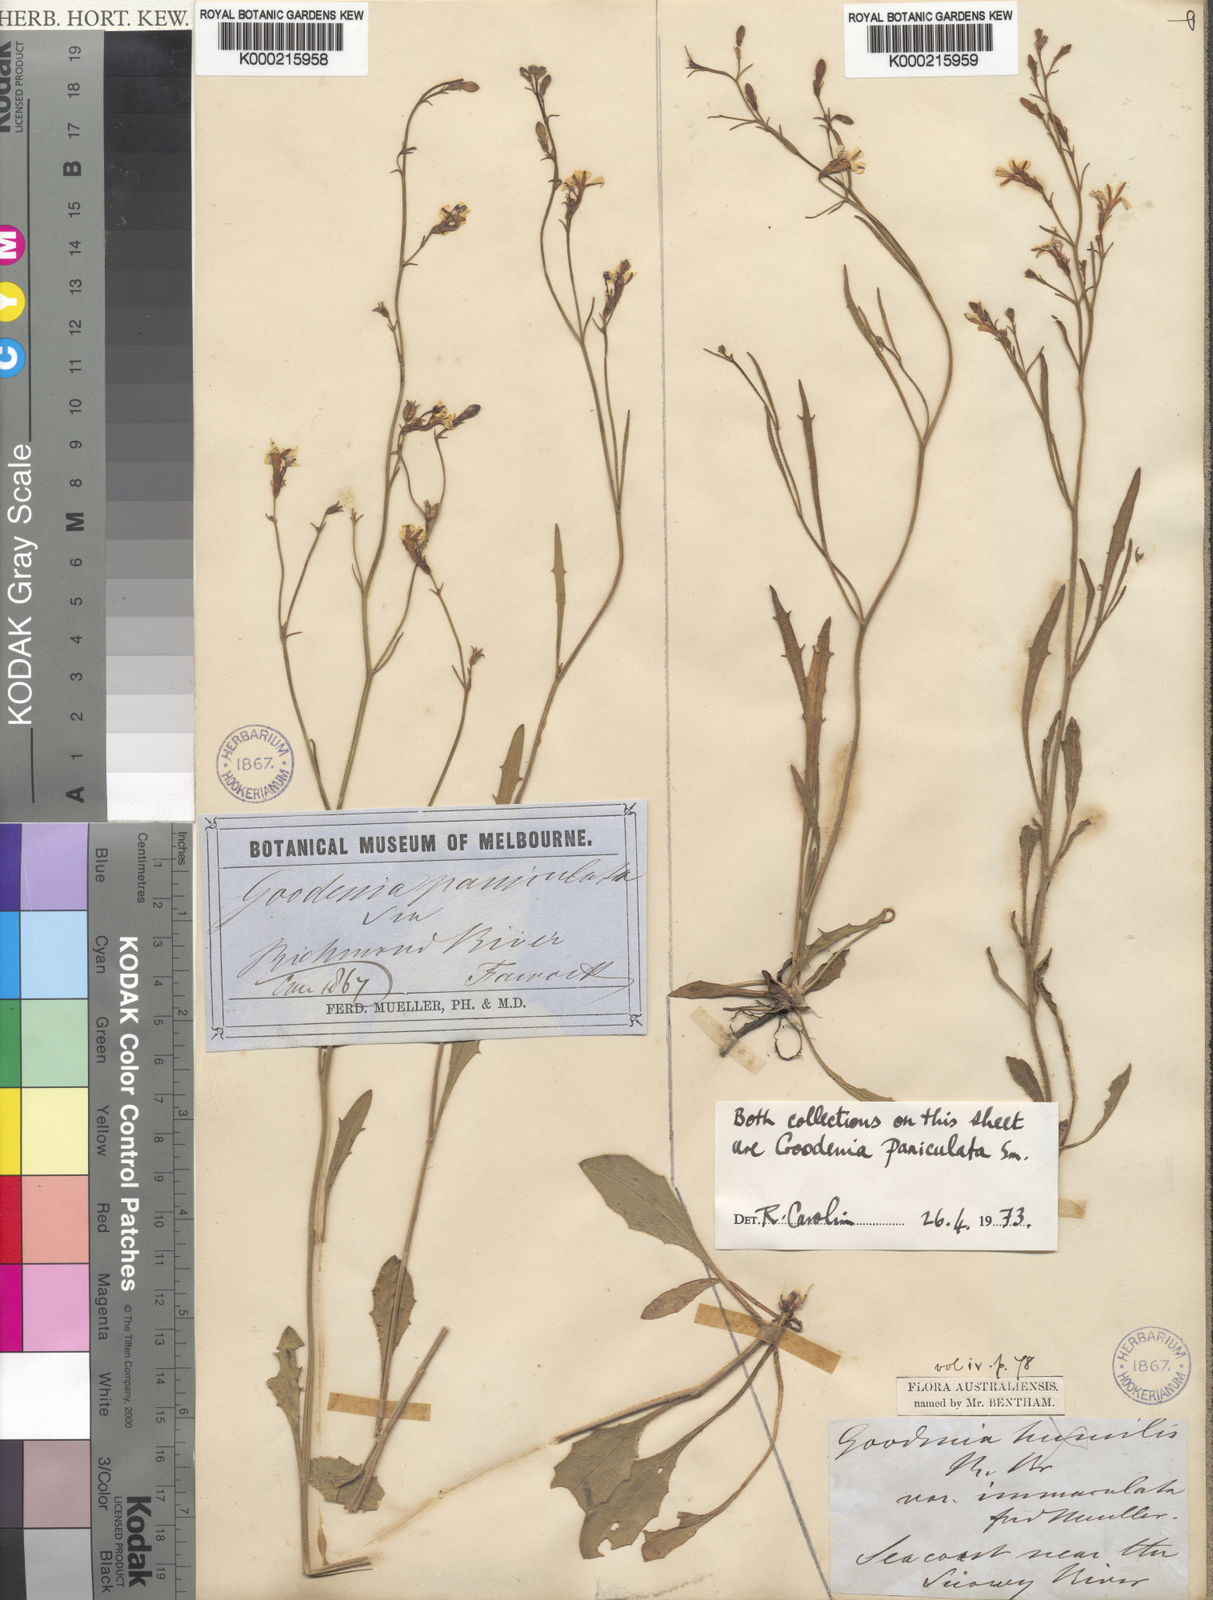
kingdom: Plantae
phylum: Tracheophyta
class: Magnoliopsida
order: Asterales
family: Goodeniaceae
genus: Goodenia
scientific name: Goodenia paniculata
